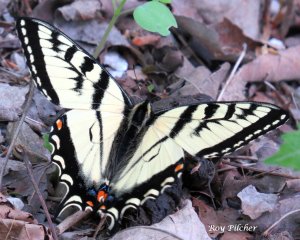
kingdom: Animalia
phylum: Arthropoda
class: Insecta
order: Lepidoptera
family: Papilionidae
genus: Pterourus
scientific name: Pterourus canadensis
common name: Canadian Tiger Swallowtail
